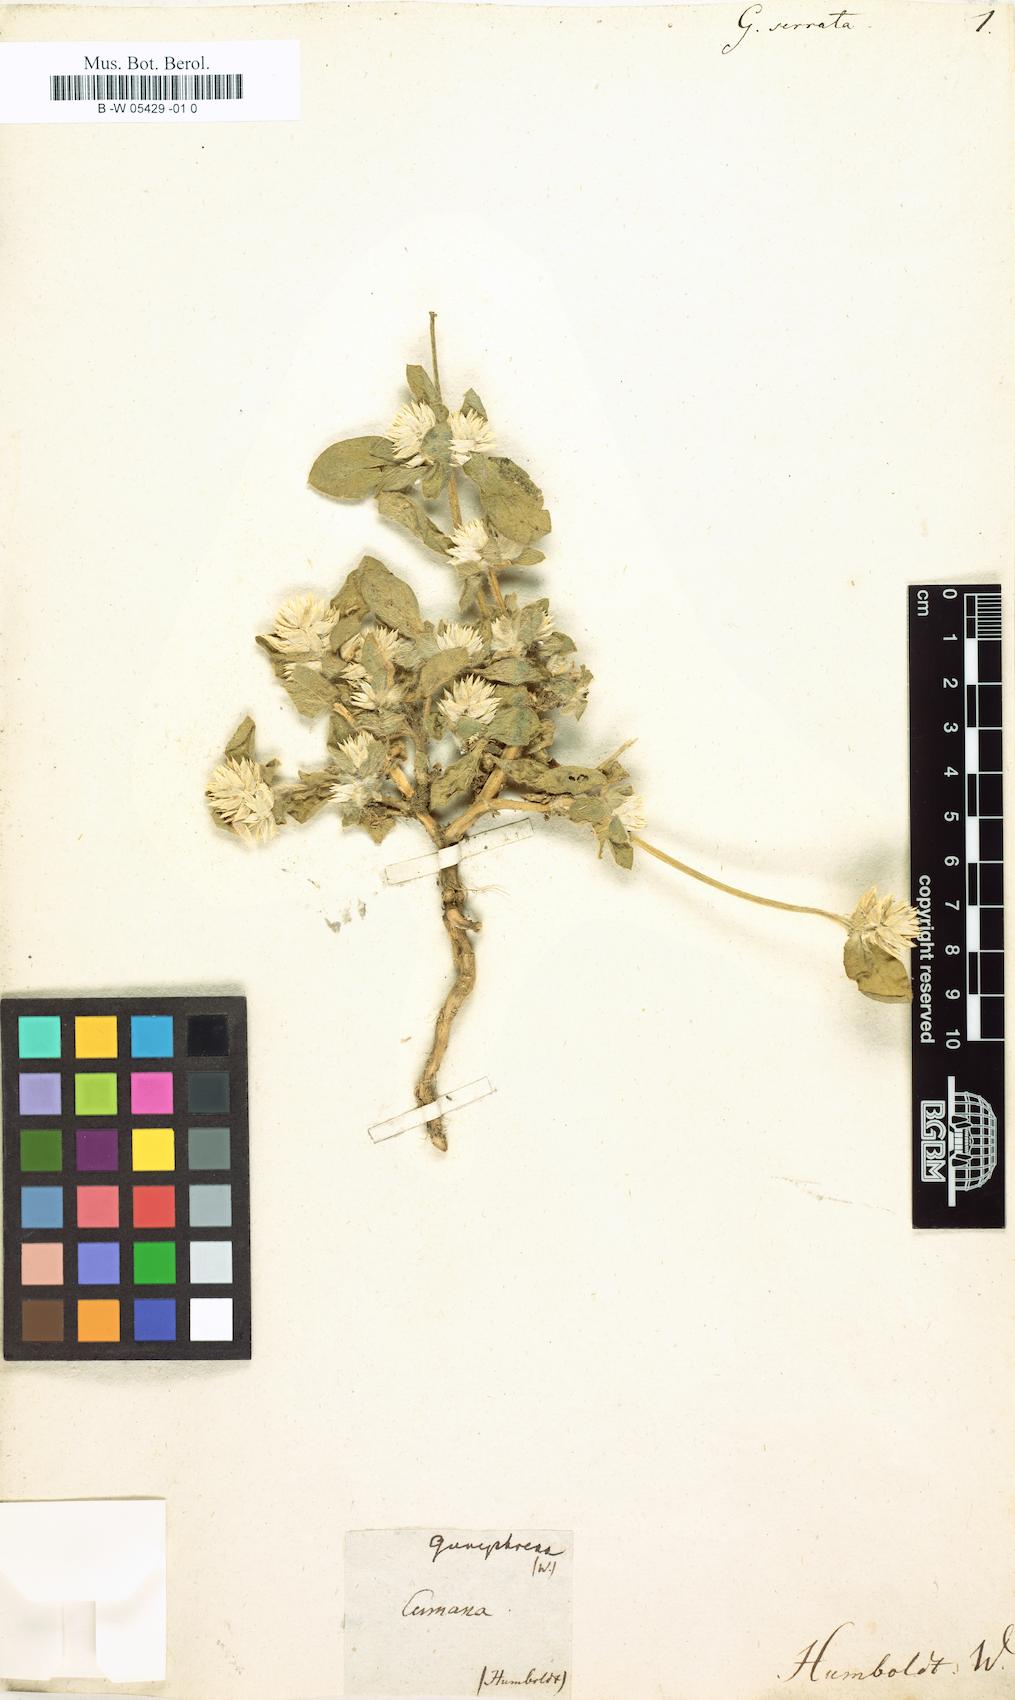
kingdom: Plantae
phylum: Tracheophyta
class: Magnoliopsida
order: Caryophyllales
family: Amaranthaceae
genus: Gomphrena
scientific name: Gomphrena serrata
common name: Arrasa con todo
